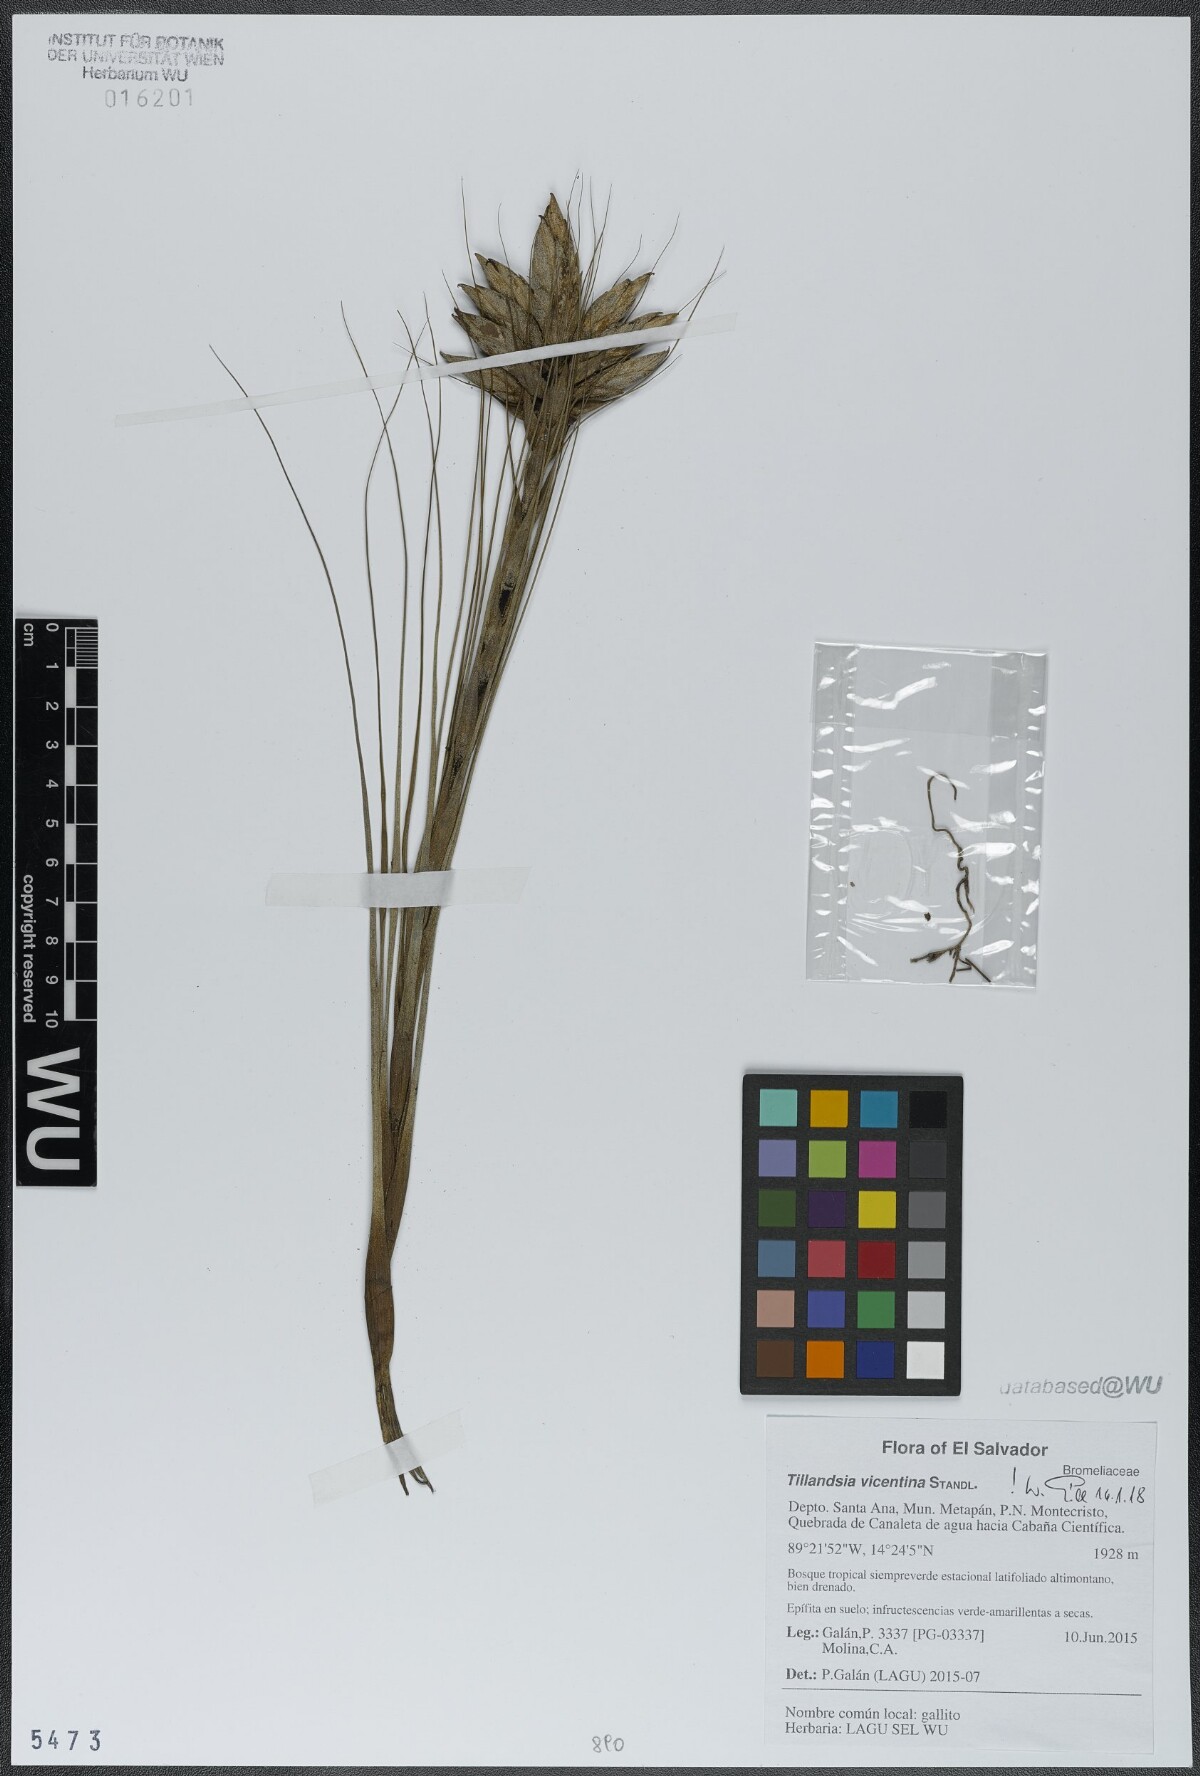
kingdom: Plantae
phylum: Tracheophyta
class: Liliopsida
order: Poales
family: Bromeliaceae
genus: Tillandsia
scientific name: Tillandsia vicentina
